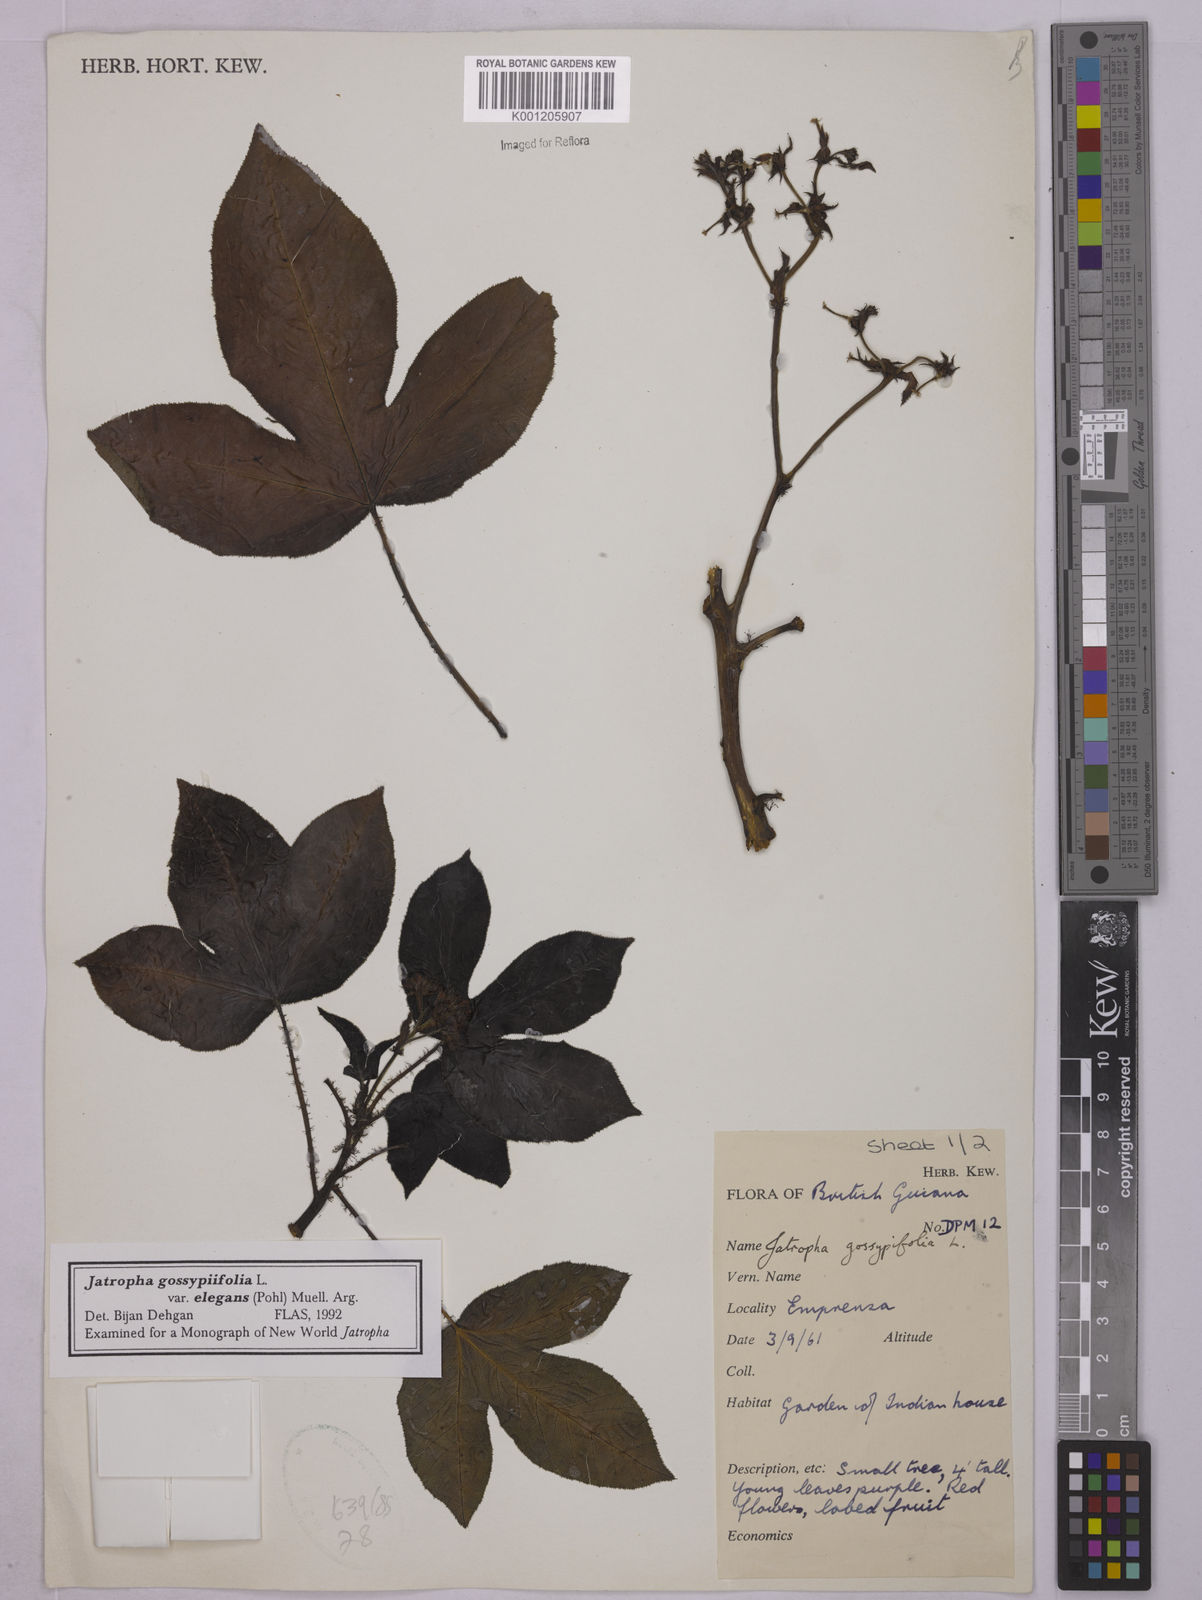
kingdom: Plantae
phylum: Tracheophyta
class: Magnoliopsida
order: Malpighiales
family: Euphorbiaceae
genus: Jatropha
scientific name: Jatropha gossypiifolia
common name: Bellyache bush
